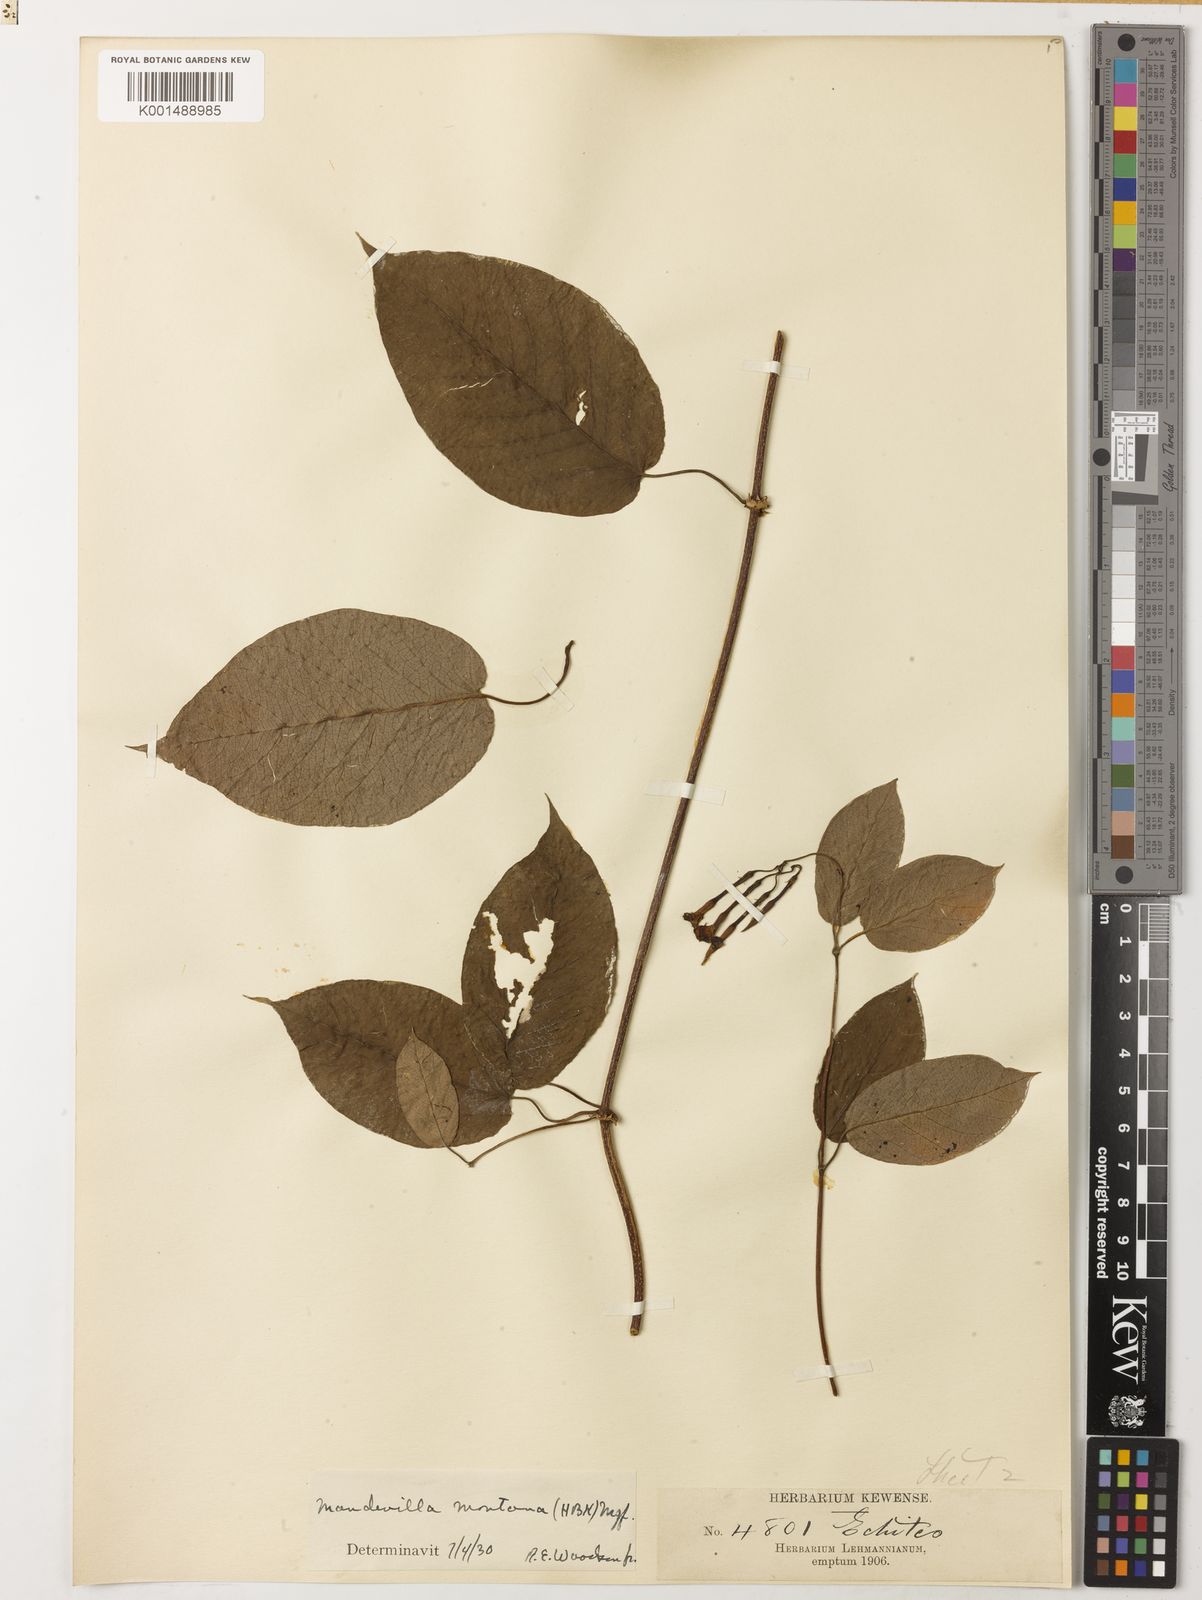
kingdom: Plantae
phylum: Tracheophyta
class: Magnoliopsida
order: Gentianales
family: Apocynaceae
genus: Mandevilla
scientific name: Mandevilla montana
